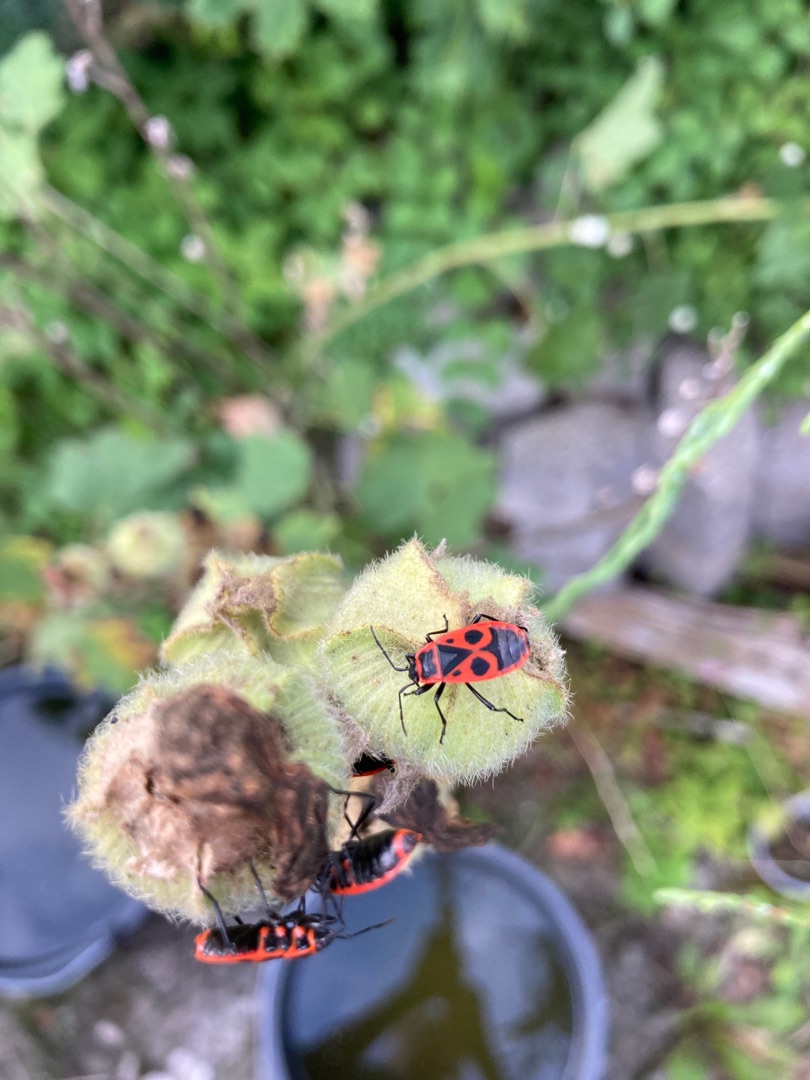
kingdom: Animalia
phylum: Arthropoda
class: Insecta
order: Hemiptera
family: Pyrrhocoridae
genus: Pyrrhocoris
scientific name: Pyrrhocoris apterus
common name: Ildtæge
